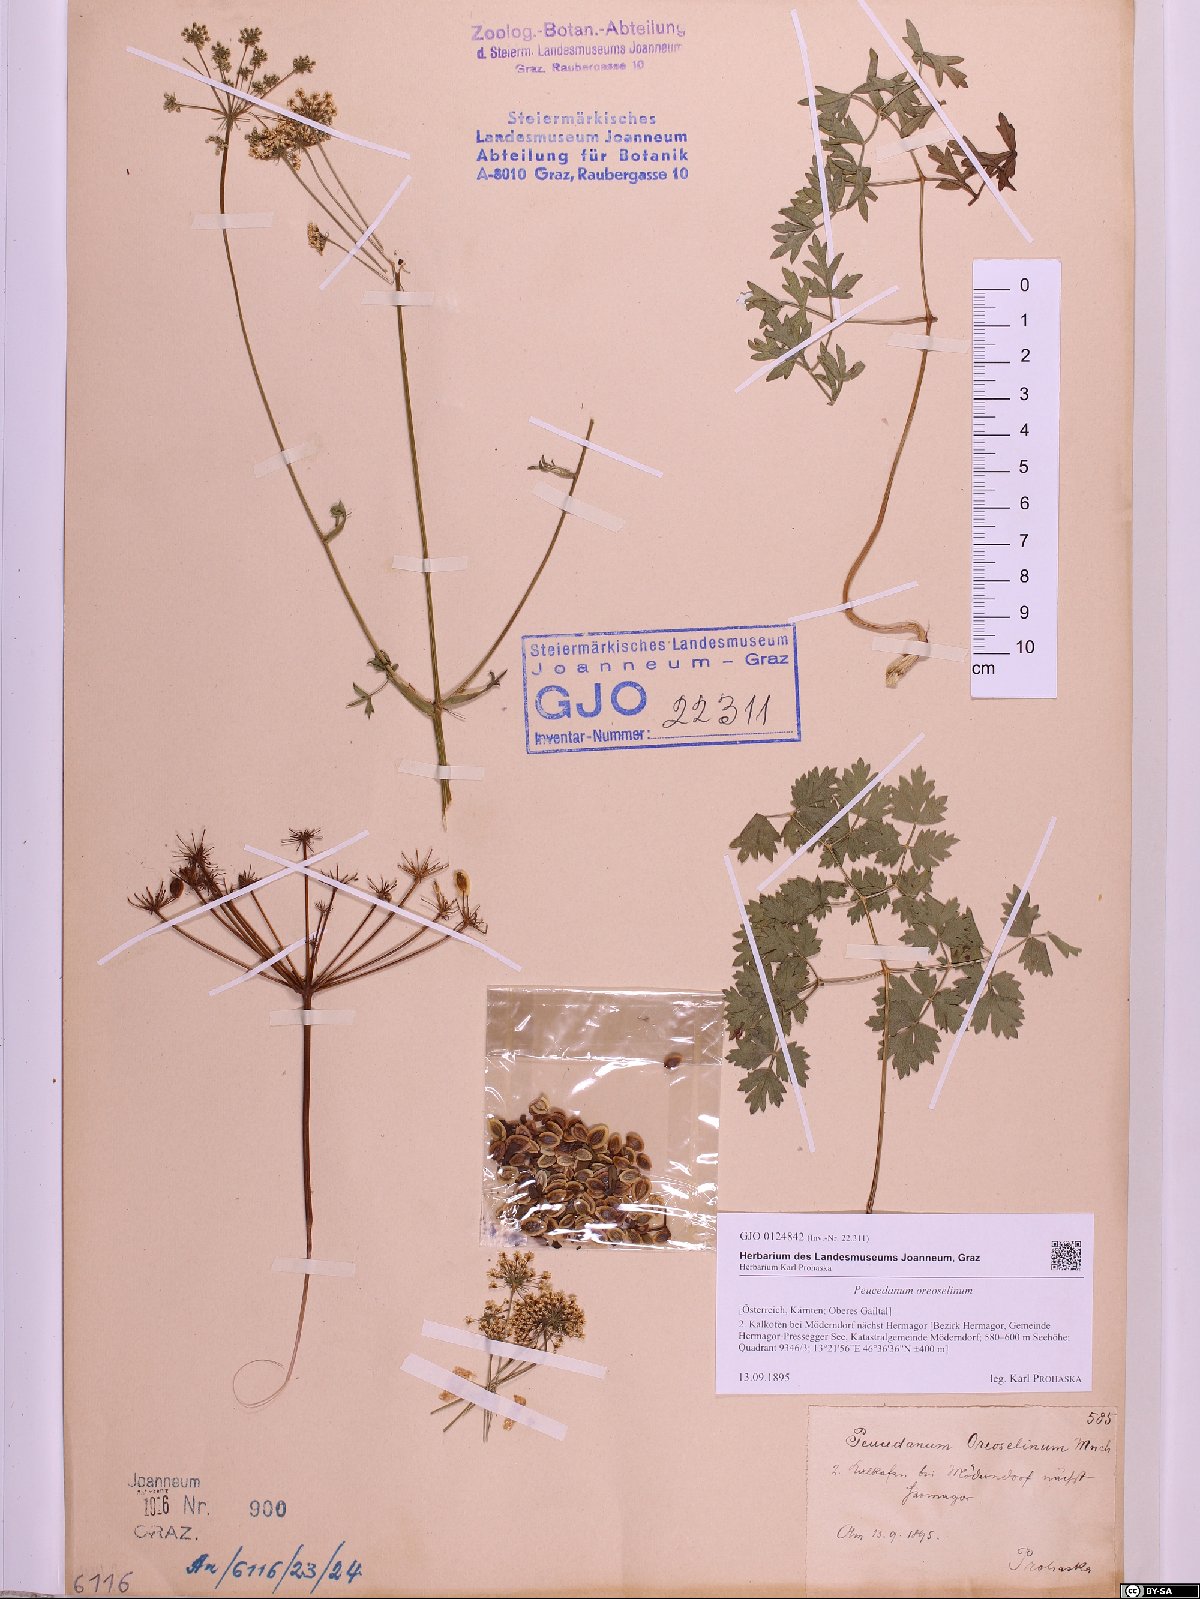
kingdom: Plantae
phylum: Tracheophyta
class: Magnoliopsida
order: Apiales
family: Apiaceae
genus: Oreoselinum
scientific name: Oreoselinum nigrum
